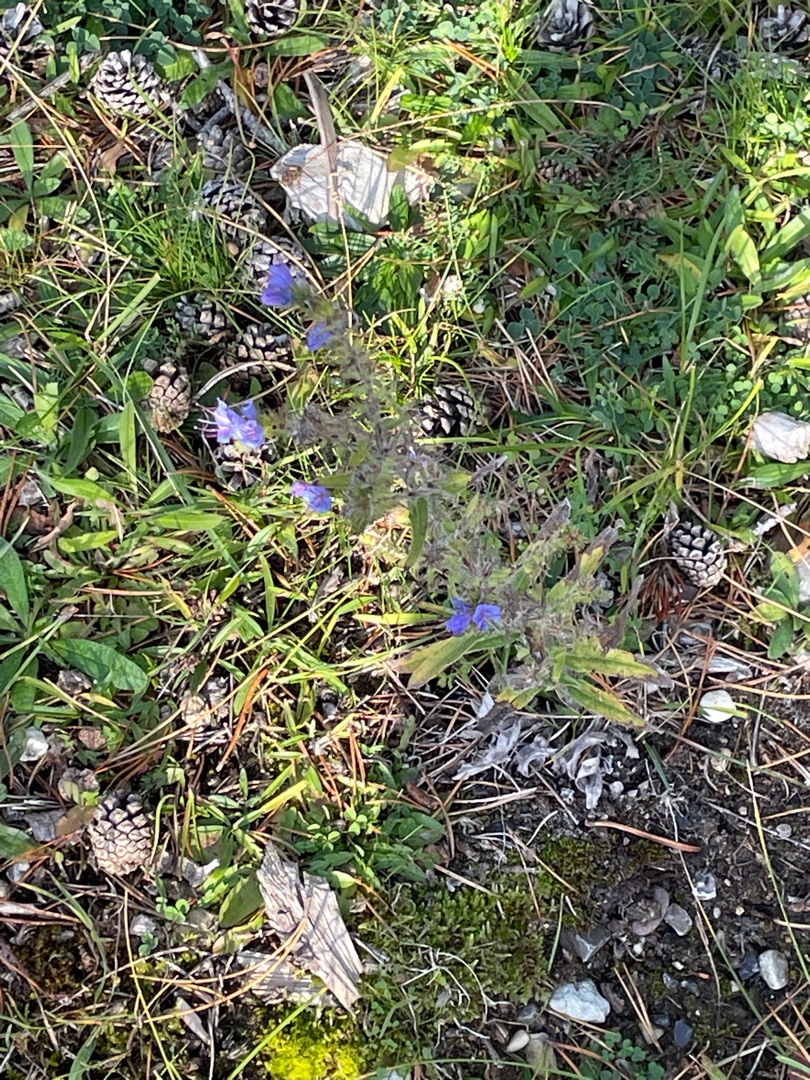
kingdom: Plantae
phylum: Tracheophyta
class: Magnoliopsida
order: Boraginales
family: Boraginaceae
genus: Echium
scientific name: Echium vulgare
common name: Slangehoved
